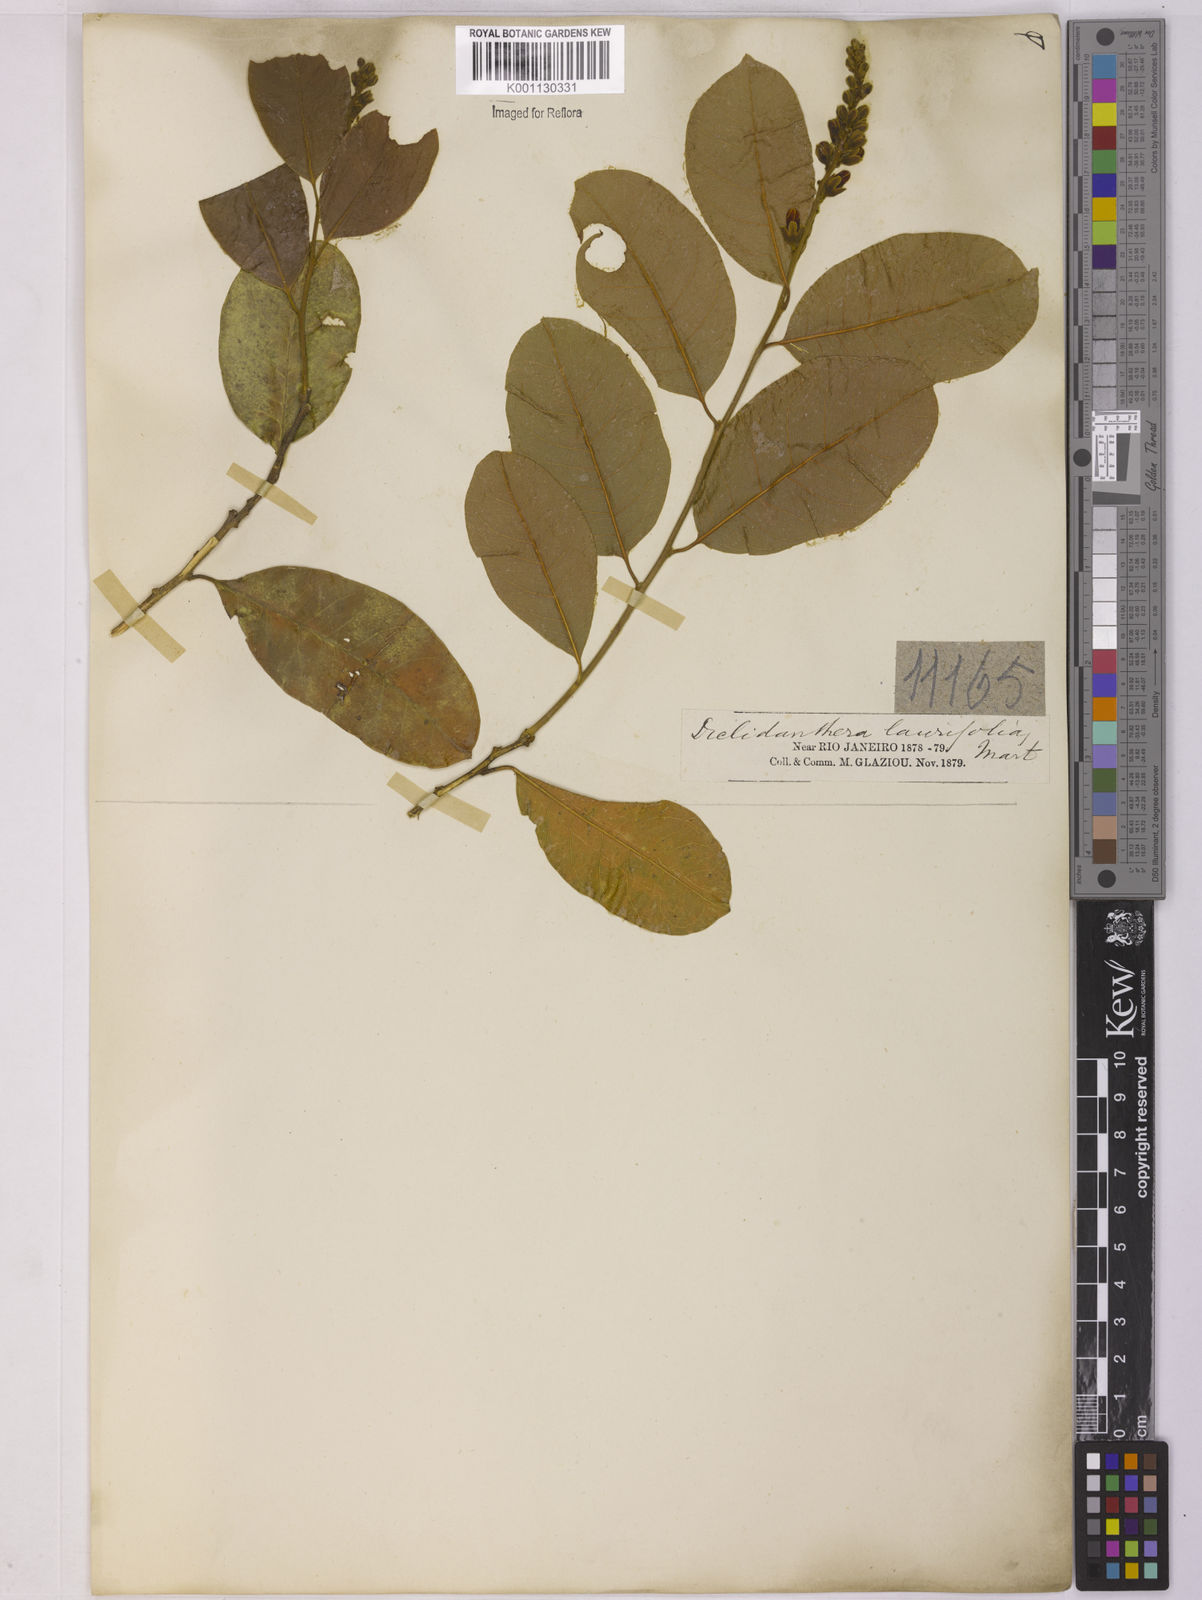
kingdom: Plantae
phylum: Tracheophyta
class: Magnoliopsida
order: Fabales
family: Polygalaceae
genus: Diclidanthera
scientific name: Diclidanthera laurifolia
